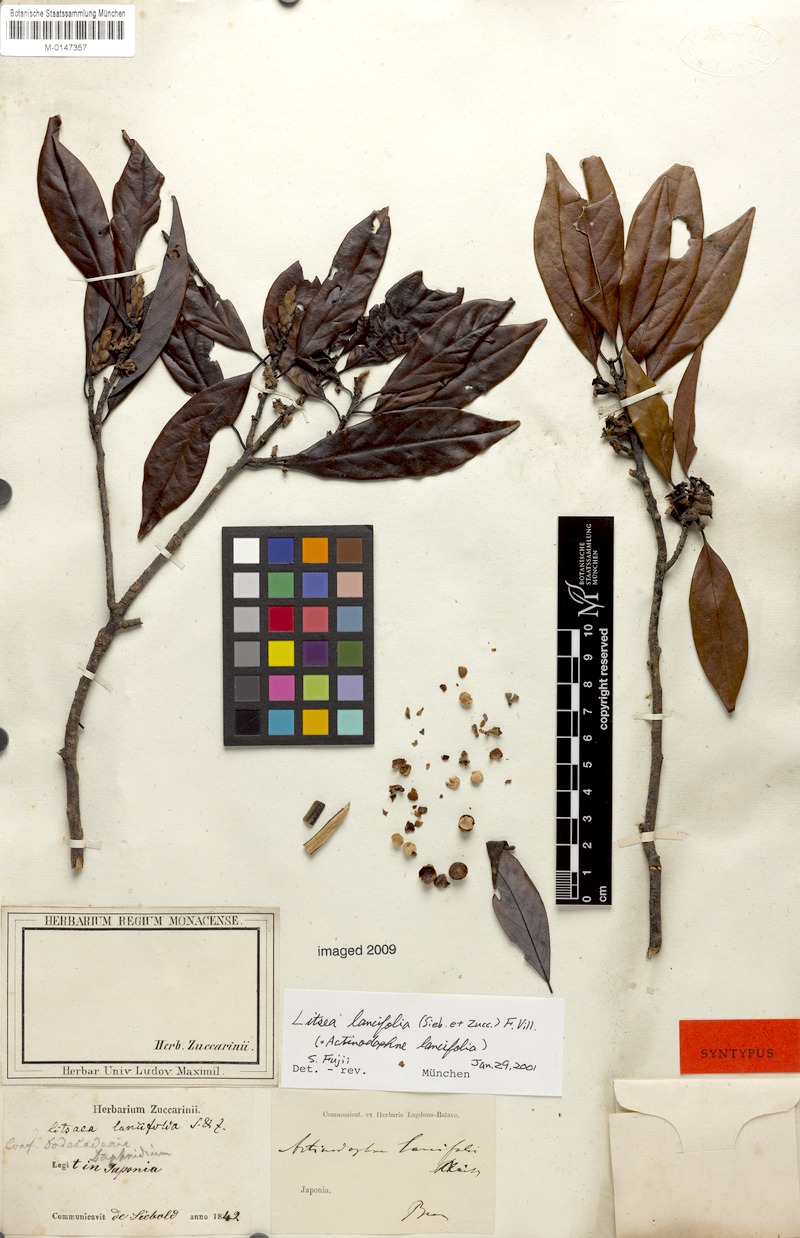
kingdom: Plantae
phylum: Tracheophyta
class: Magnoliopsida
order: Laurales
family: Lauraceae
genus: Litsea
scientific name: Litsea lancifolia
